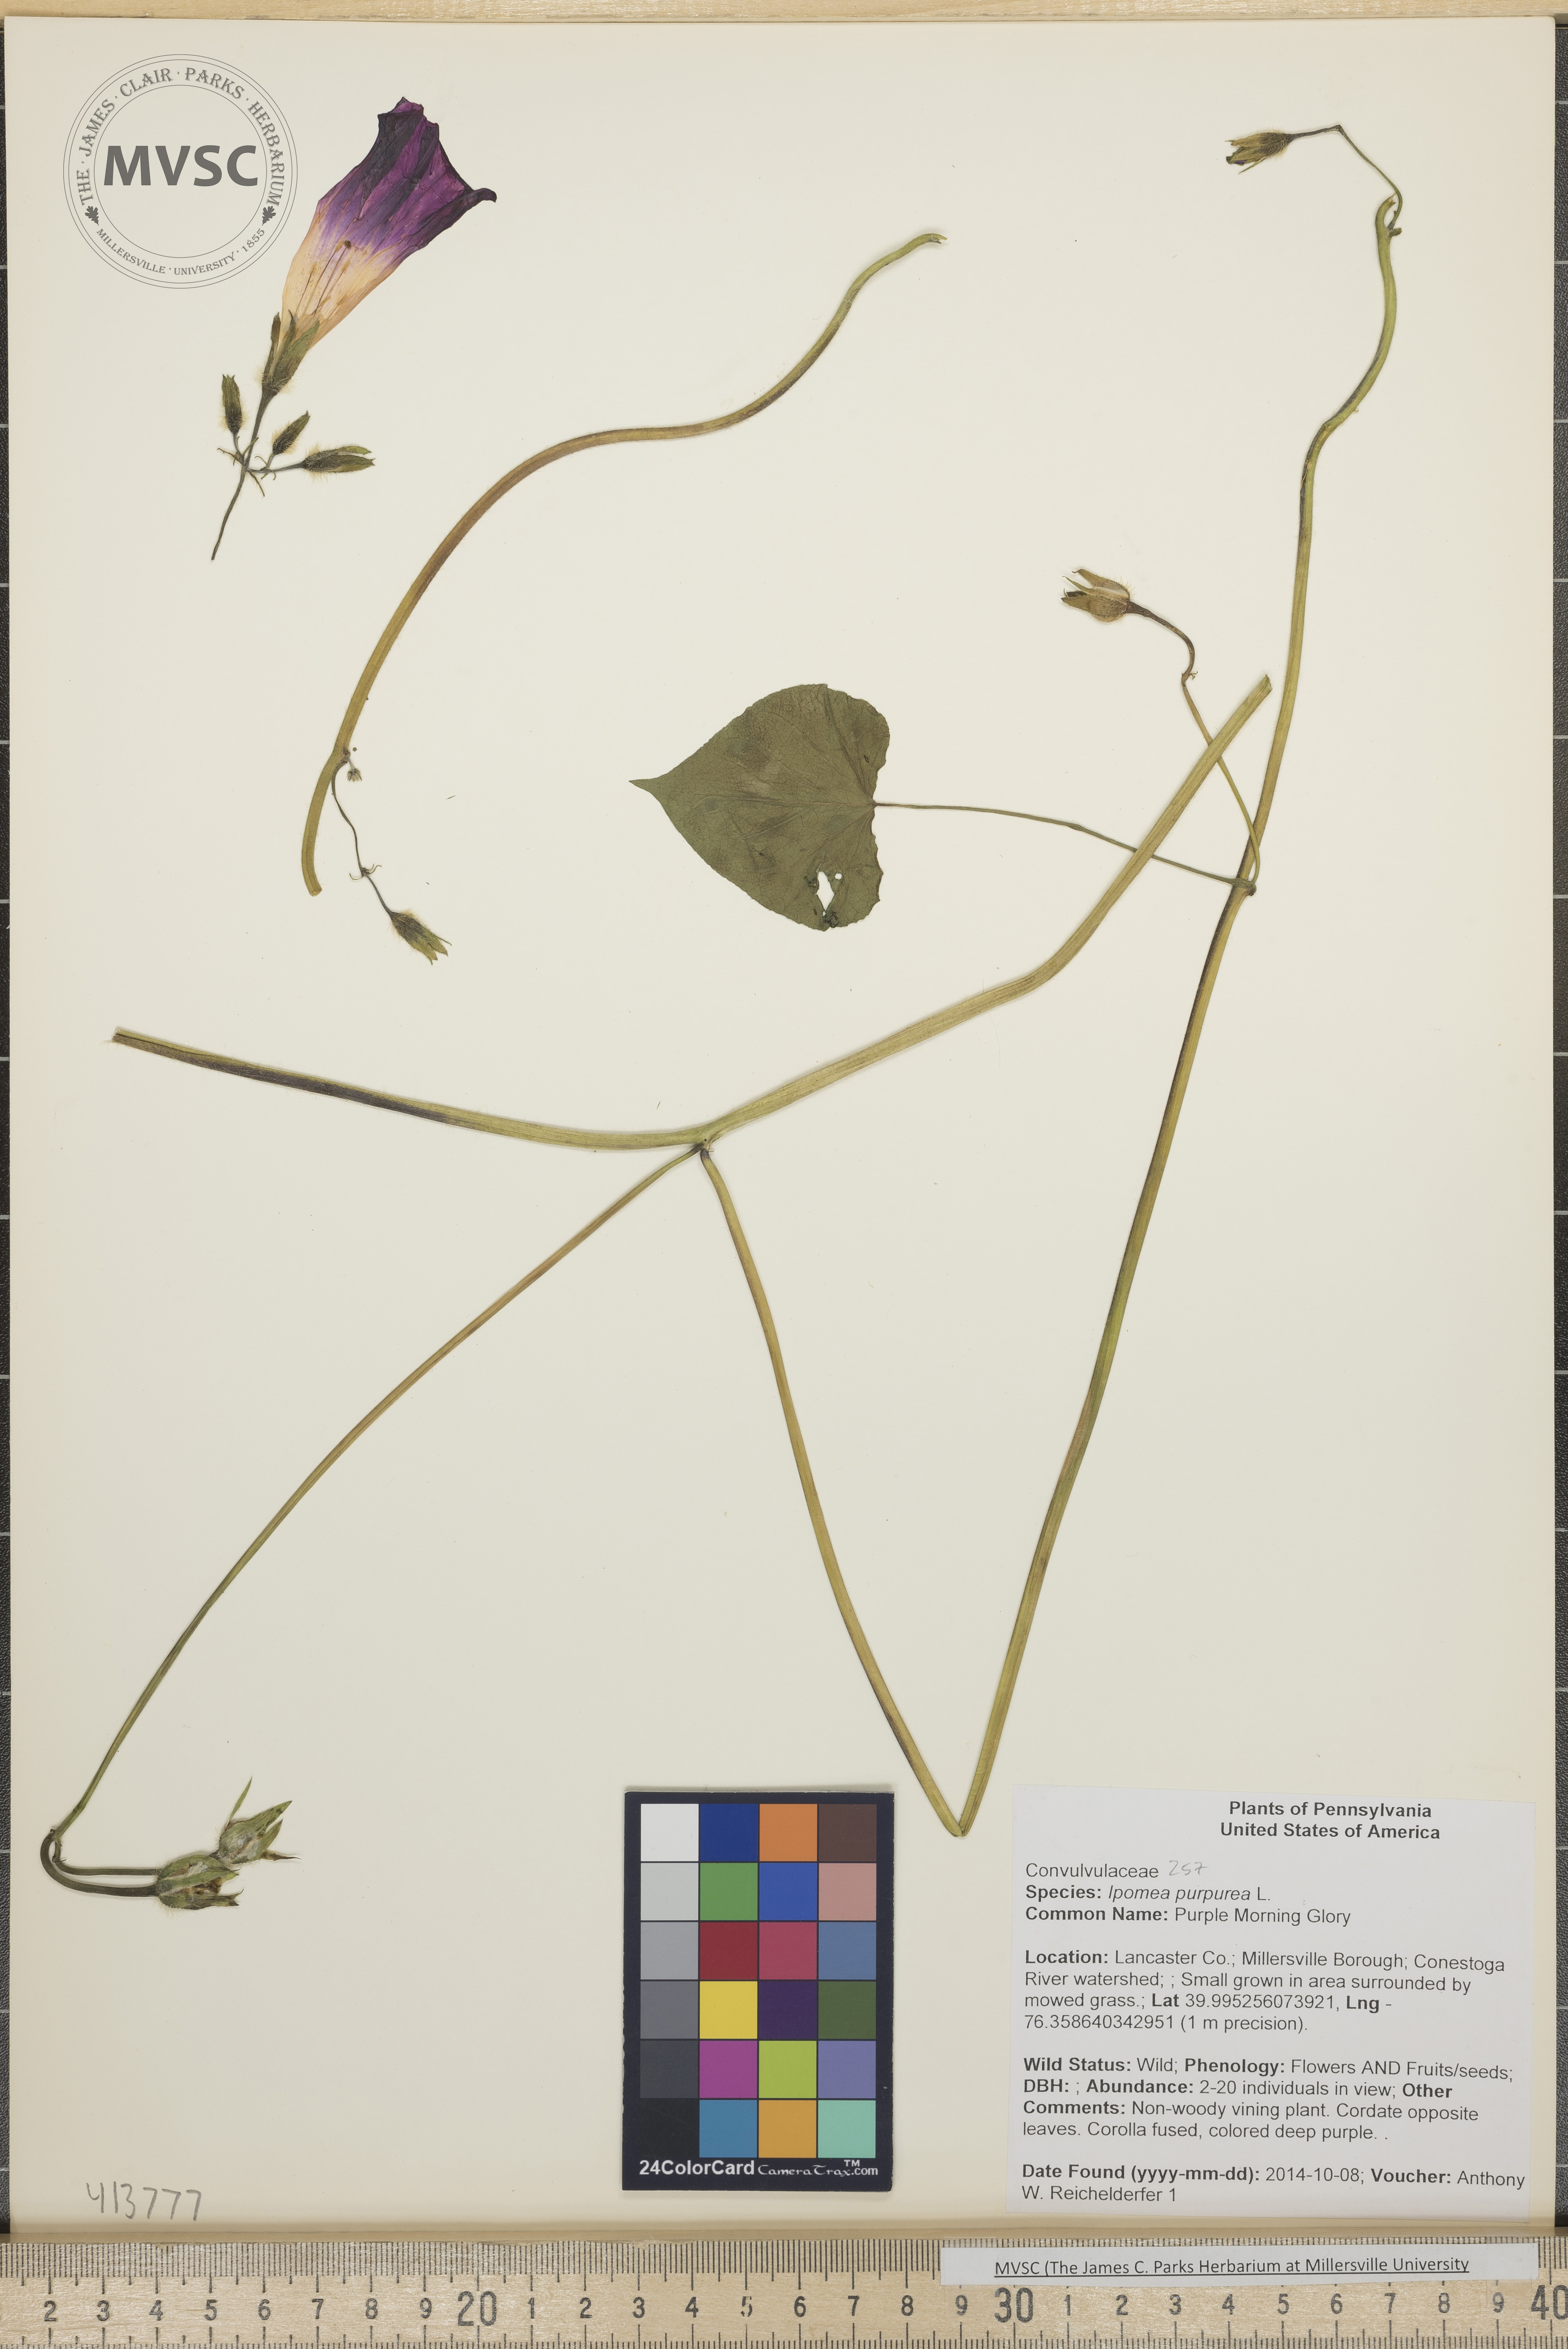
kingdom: Plantae
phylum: Tracheophyta
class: Magnoliopsida
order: Solanales
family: Convolvulaceae
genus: Ipomoea
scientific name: Ipomoea purpurea
